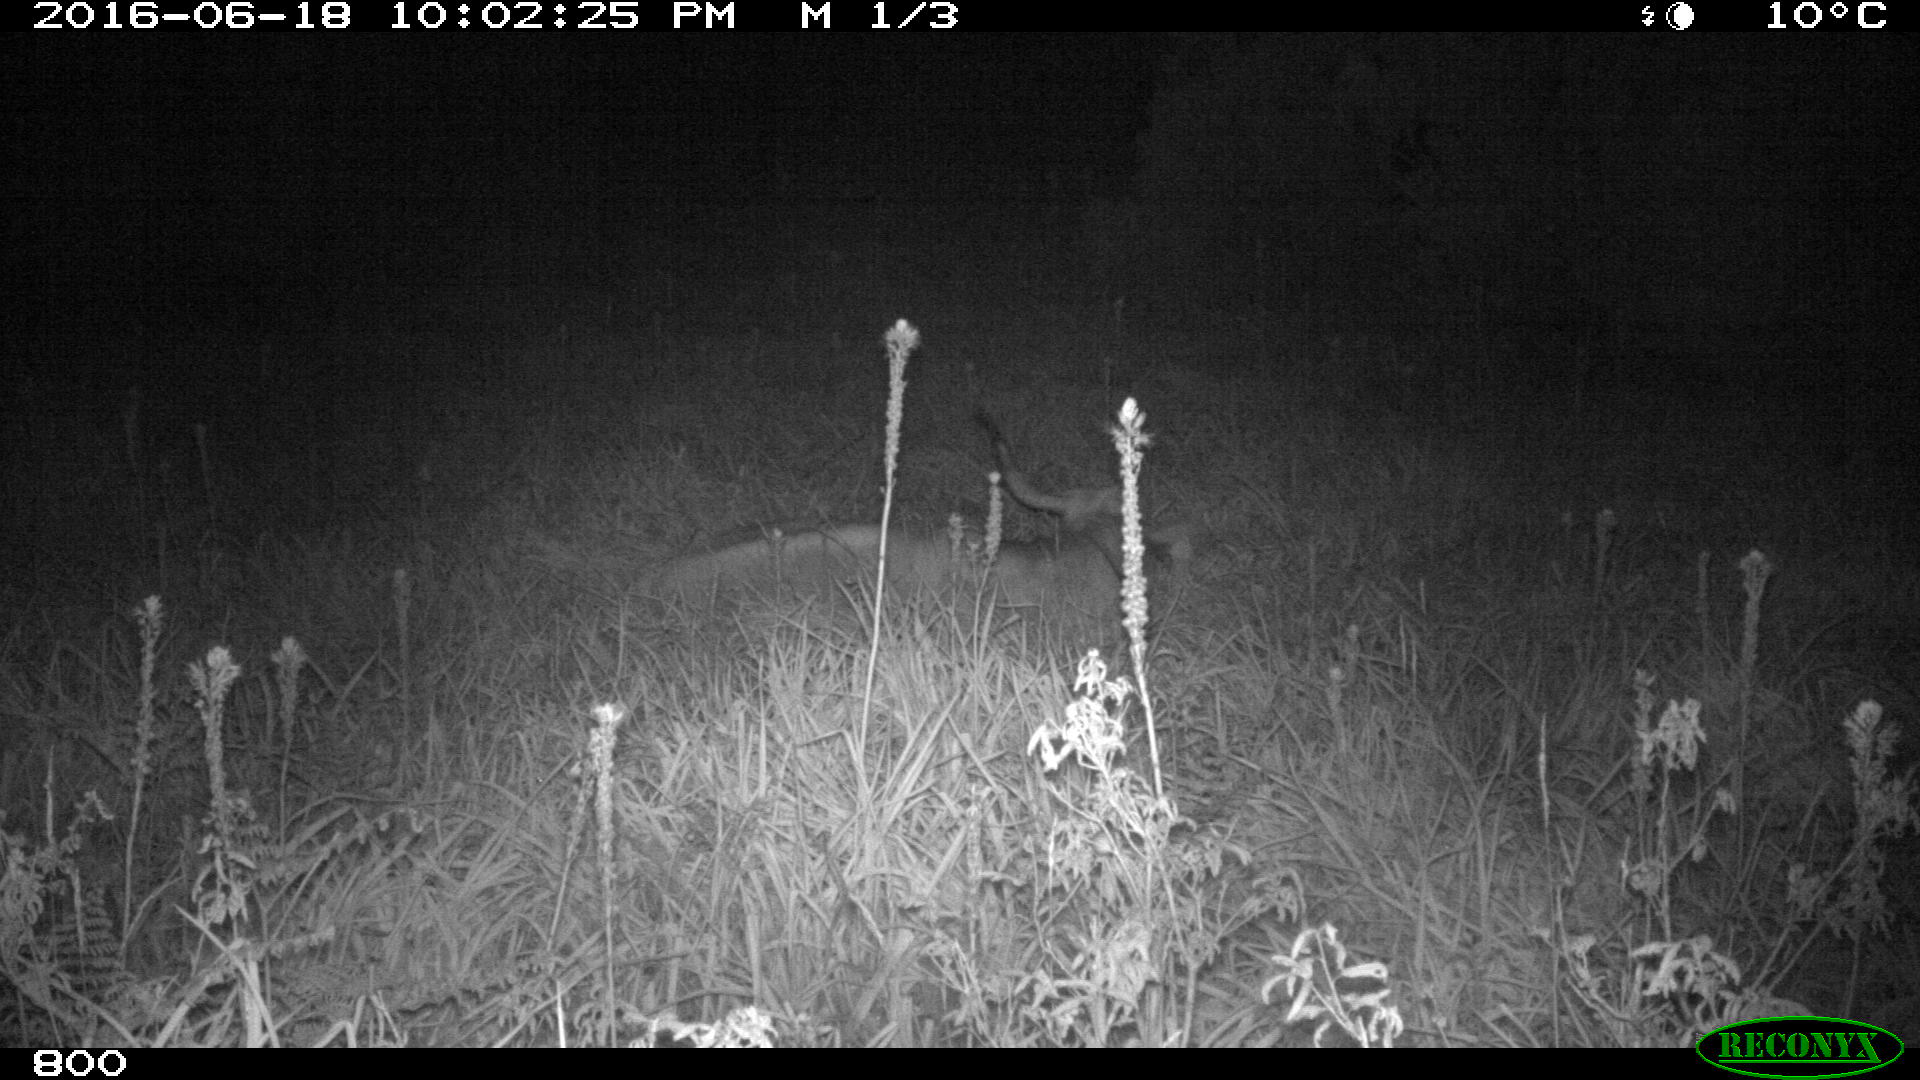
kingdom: Animalia
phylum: Chordata
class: Mammalia
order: Artiodactyla
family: Bovidae
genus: Bos
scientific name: Bos taurus
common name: Domesticated cattle
